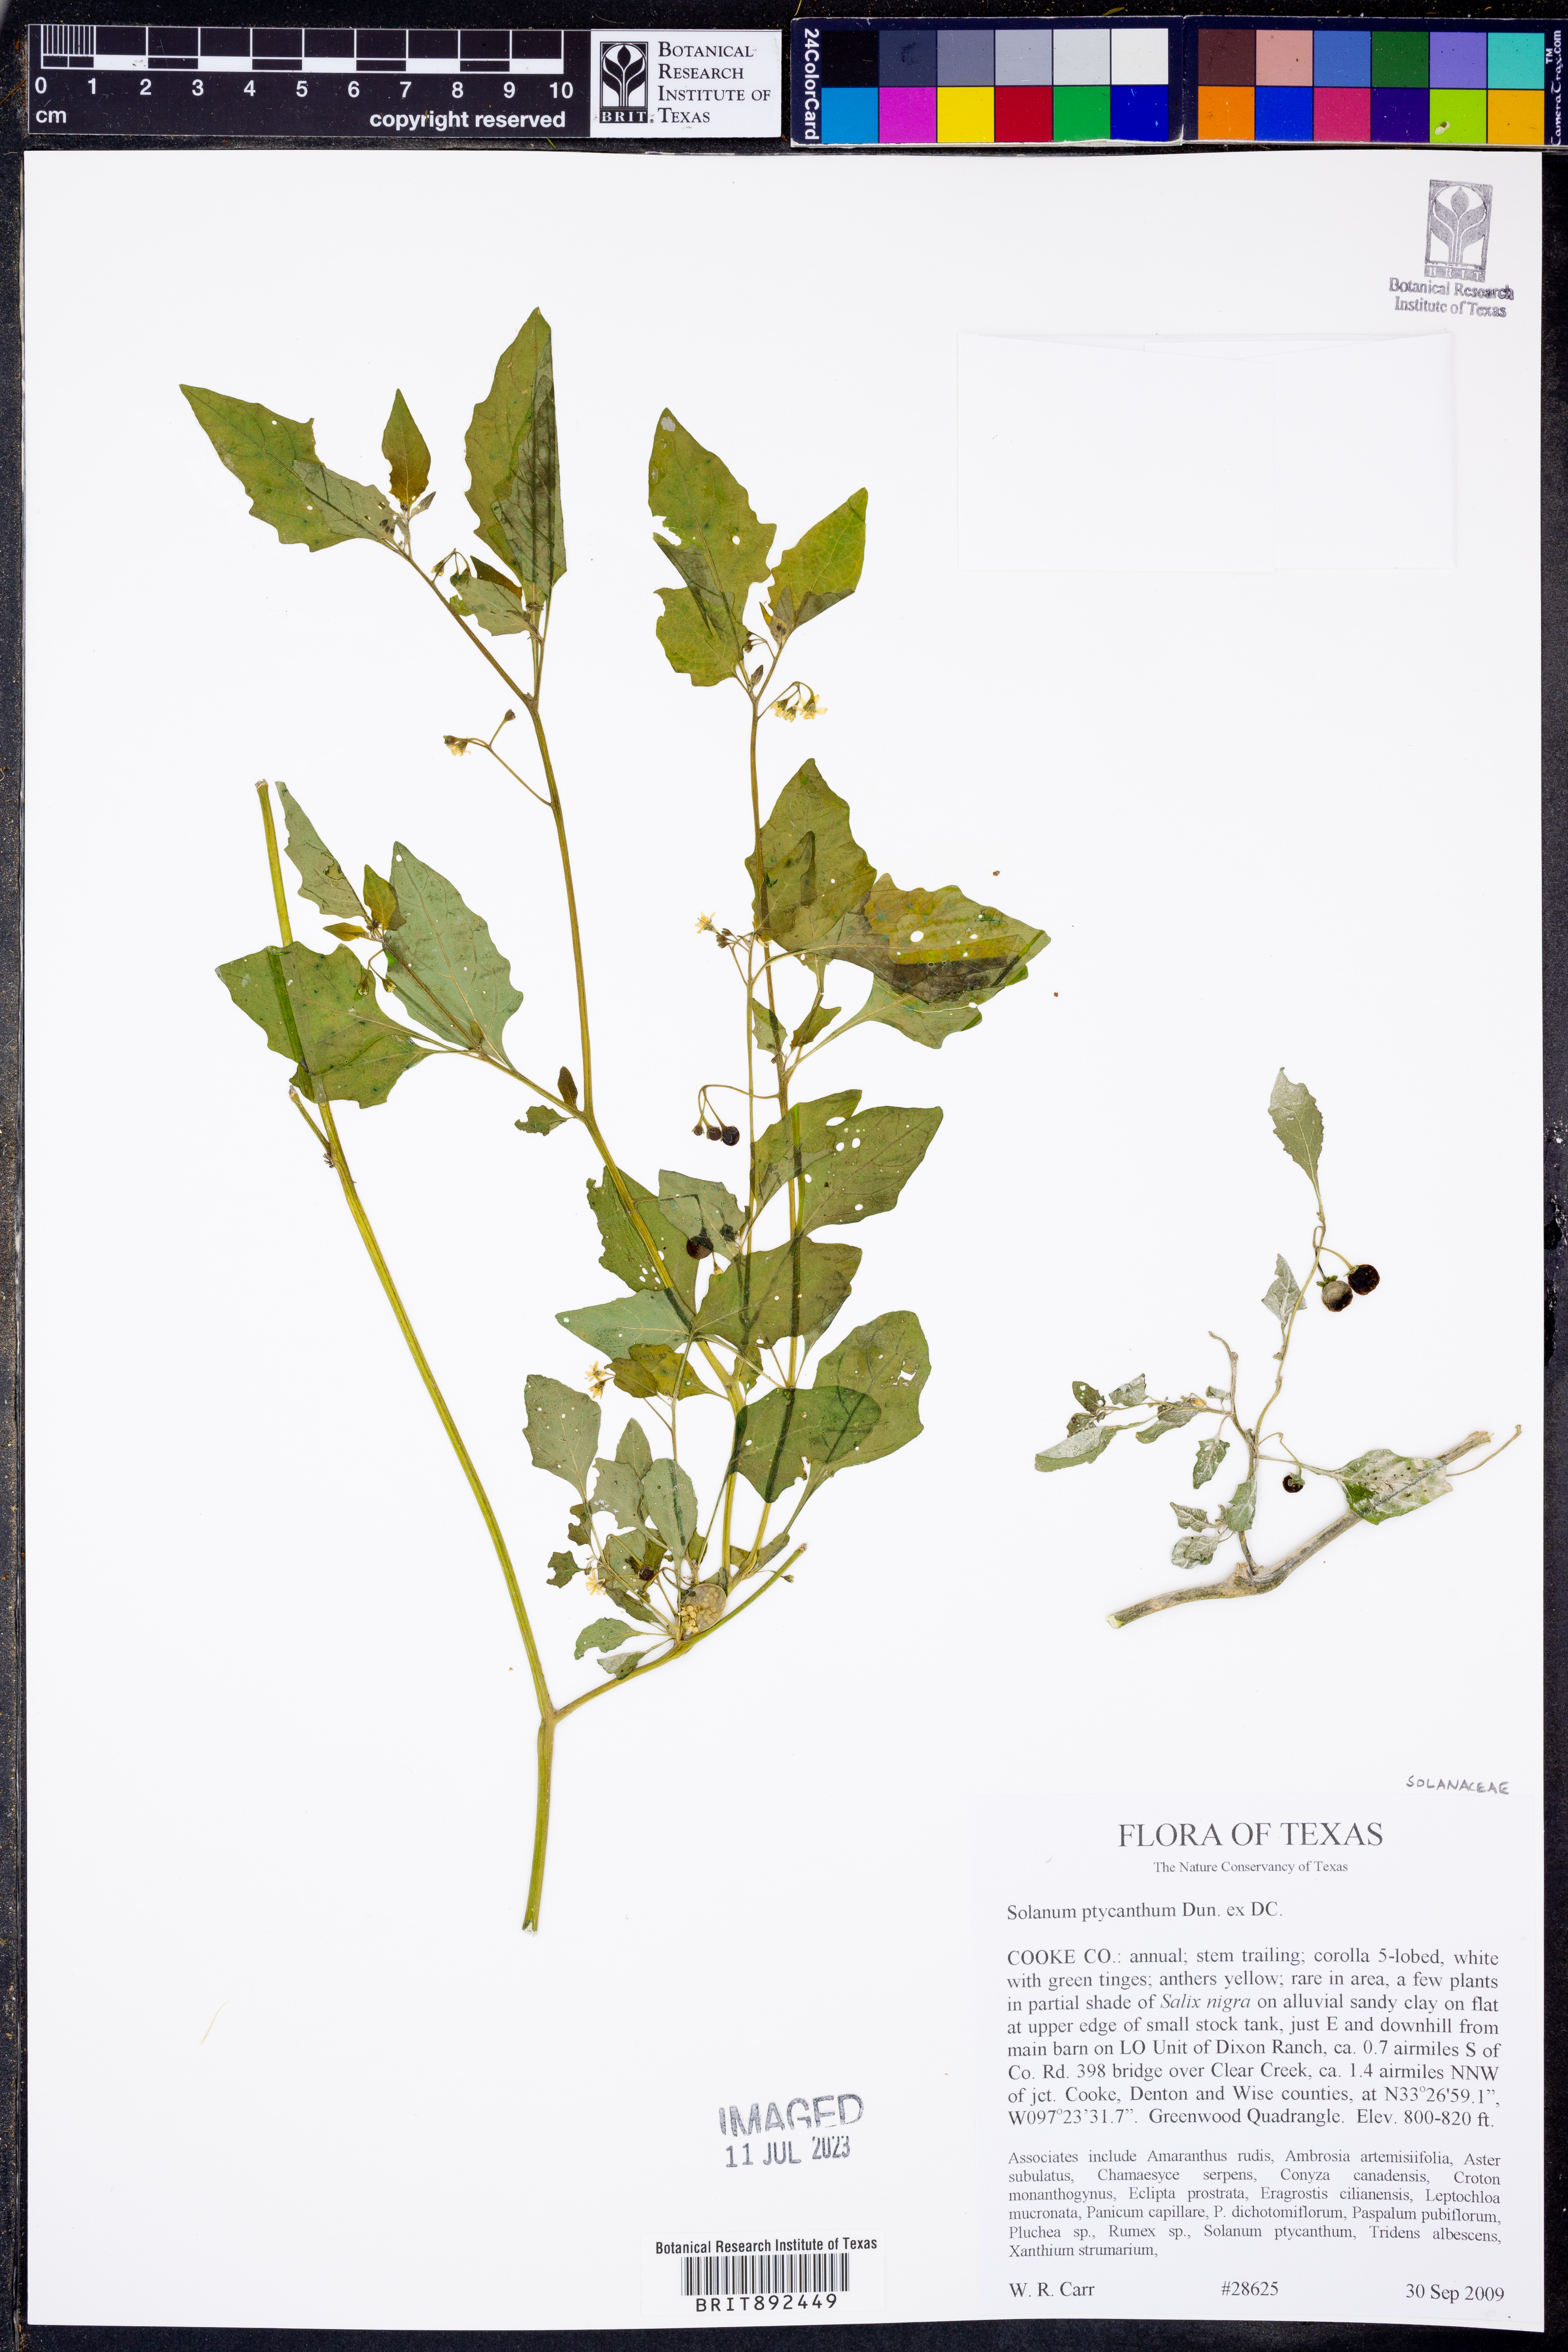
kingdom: Plantae
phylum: Tracheophyta
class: Magnoliopsida
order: Solanales
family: Solanaceae
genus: Solanum
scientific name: Solanum americanum
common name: American black nightshade
